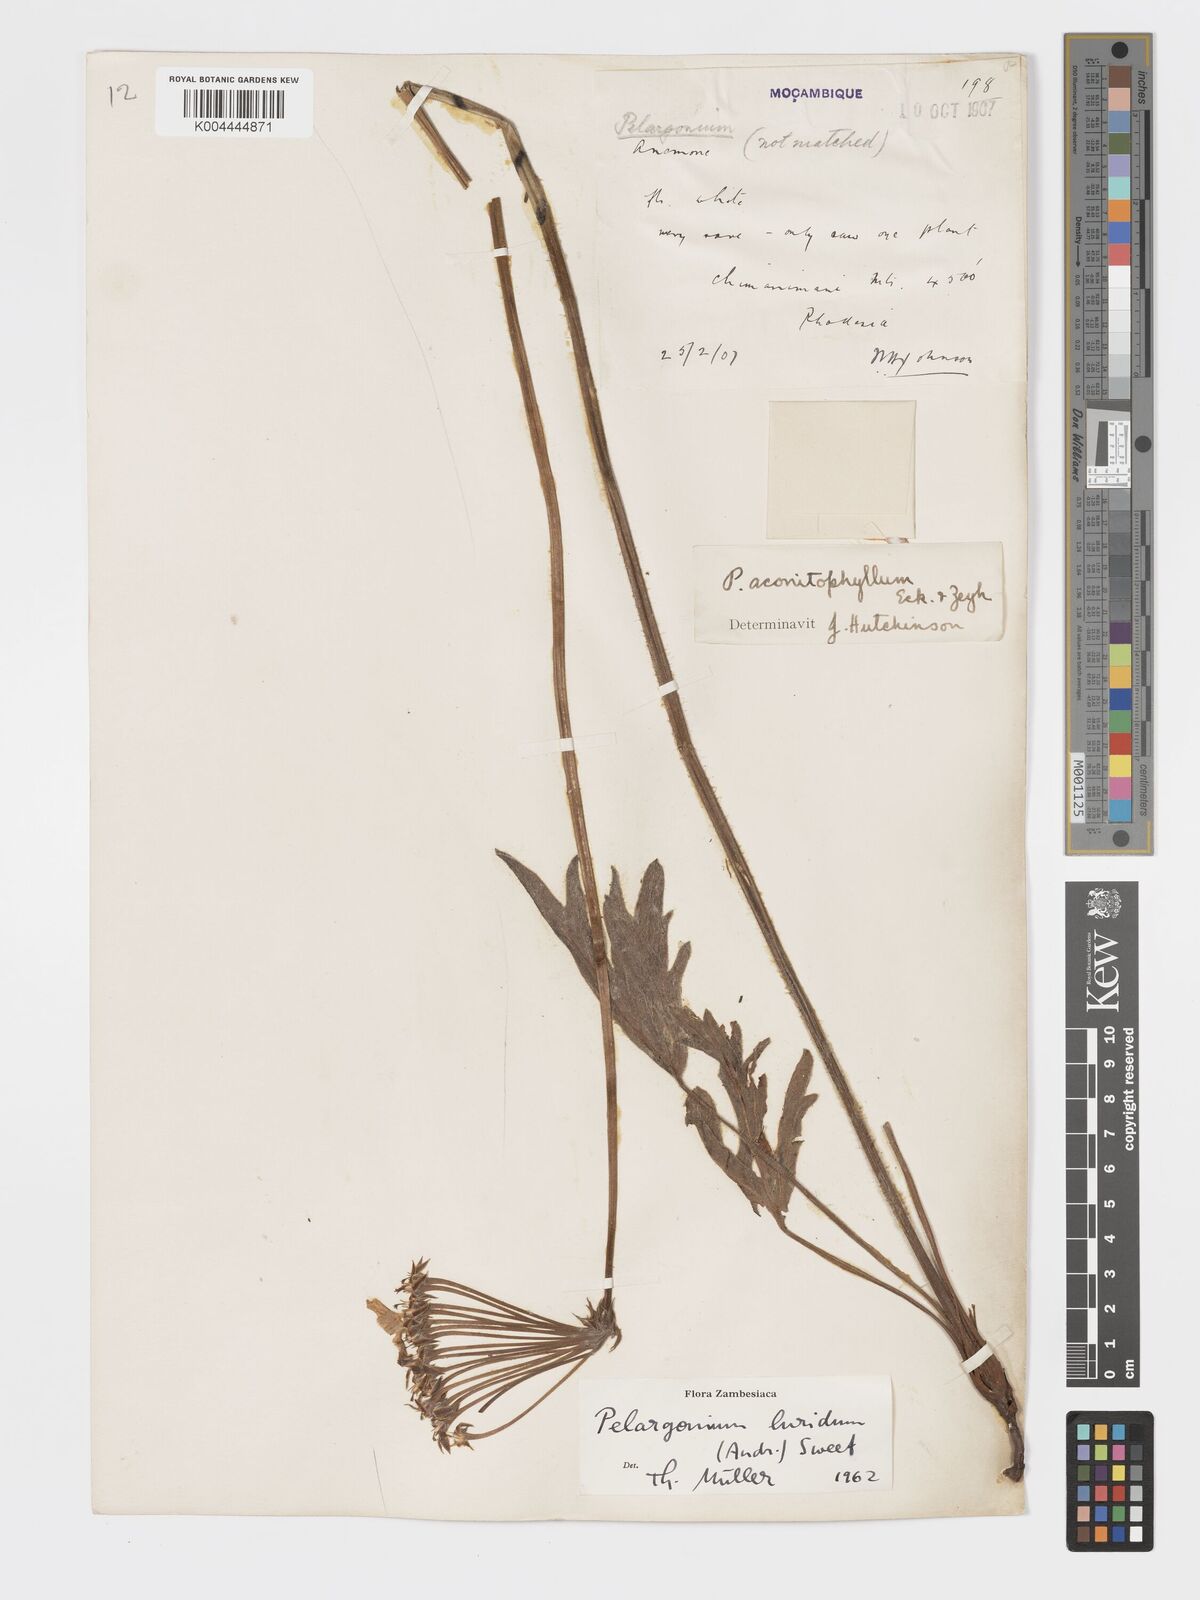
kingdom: Plantae
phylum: Tracheophyta
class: Magnoliopsida
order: Geraniales
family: Geraniaceae
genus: Pelargonium
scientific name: Pelargonium luridum
